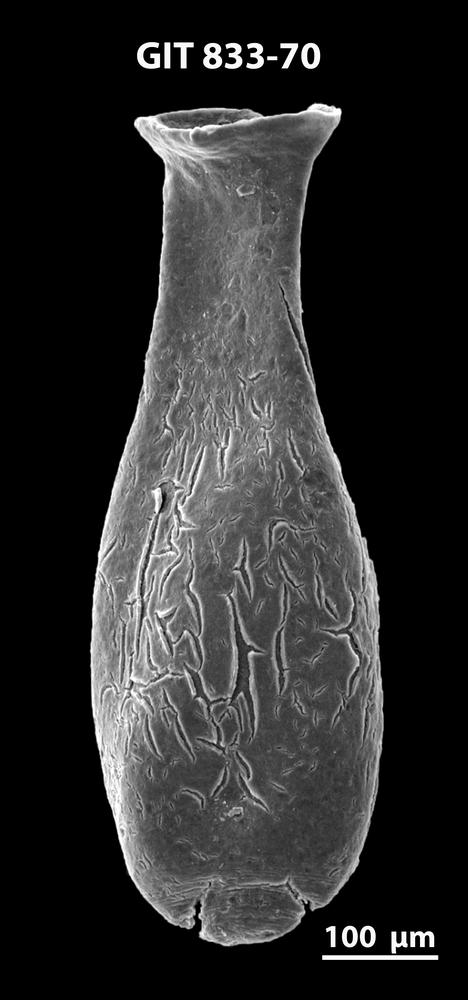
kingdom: Animalia
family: Lagenochitinidae
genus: Lagenochitina
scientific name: Lagenochitina megaesthonica
